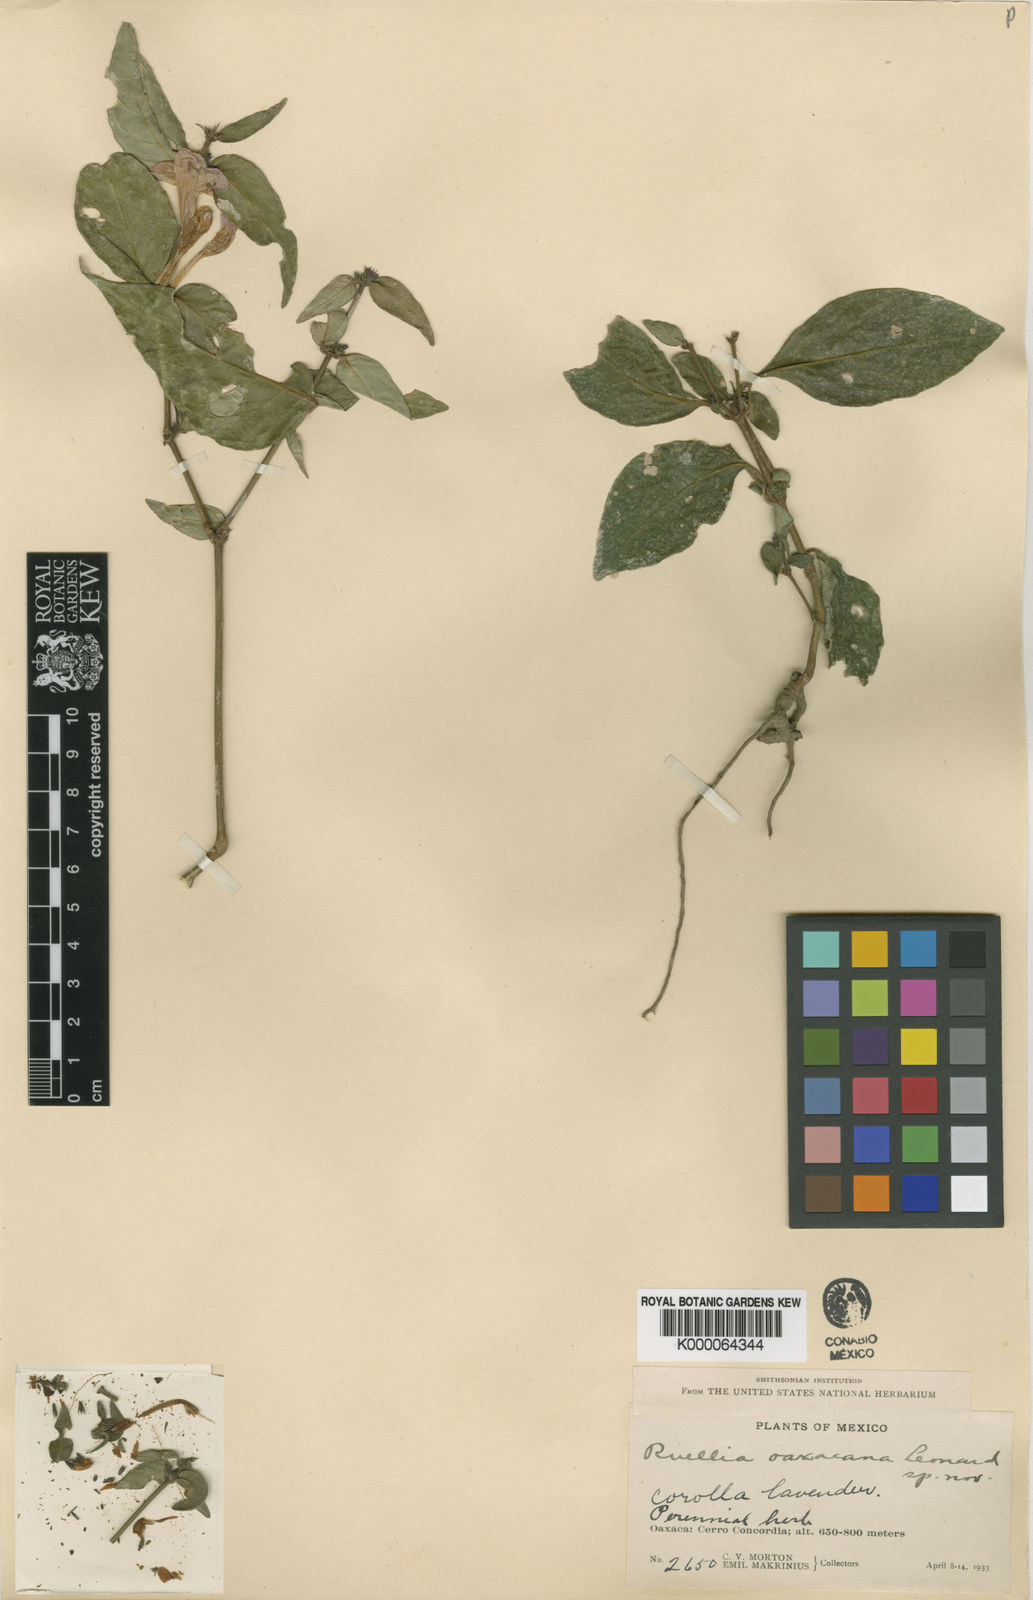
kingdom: Plantae
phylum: Tracheophyta
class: Magnoliopsida
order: Lamiales
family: Acanthaceae
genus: Ruellia
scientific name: Ruellia oaxacana
